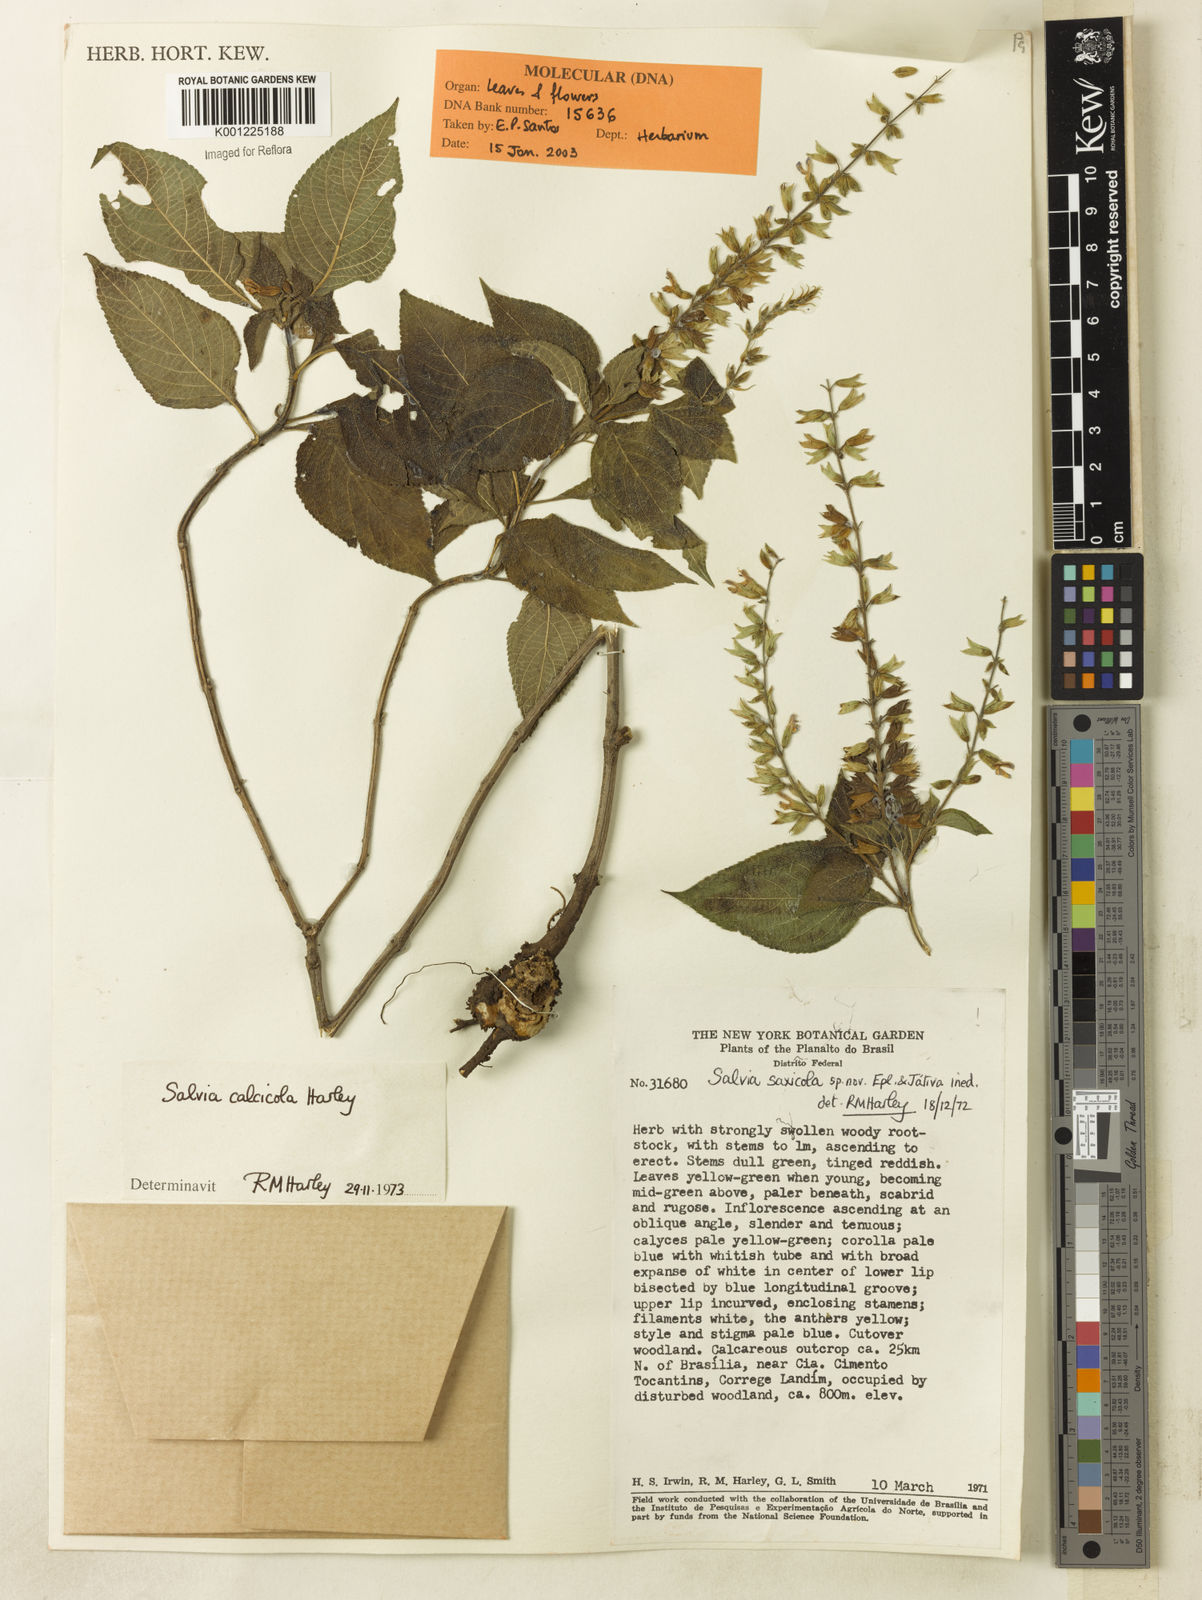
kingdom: Plantae
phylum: Tracheophyta
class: Magnoliopsida
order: Lamiales
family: Lamiaceae
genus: Salvia
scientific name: Salvia calcicola
